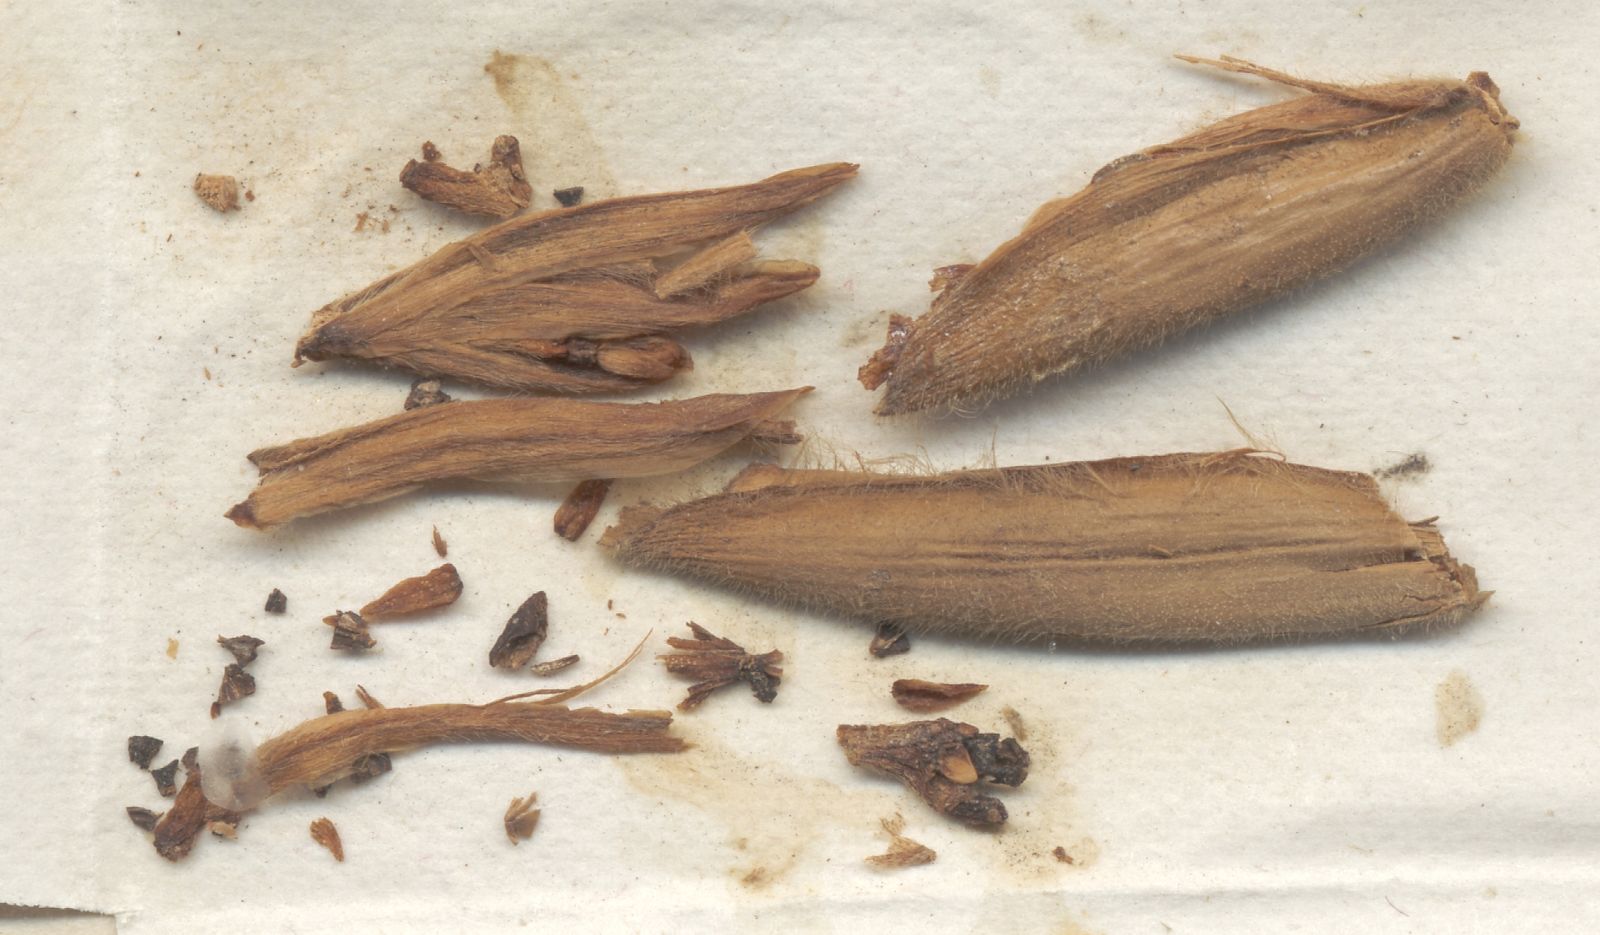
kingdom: Plantae
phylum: Tracheophyta
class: Liliopsida
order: Zingiberales
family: Marantaceae
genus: Sarcophrynium
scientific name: Sarcophrynium villosum
